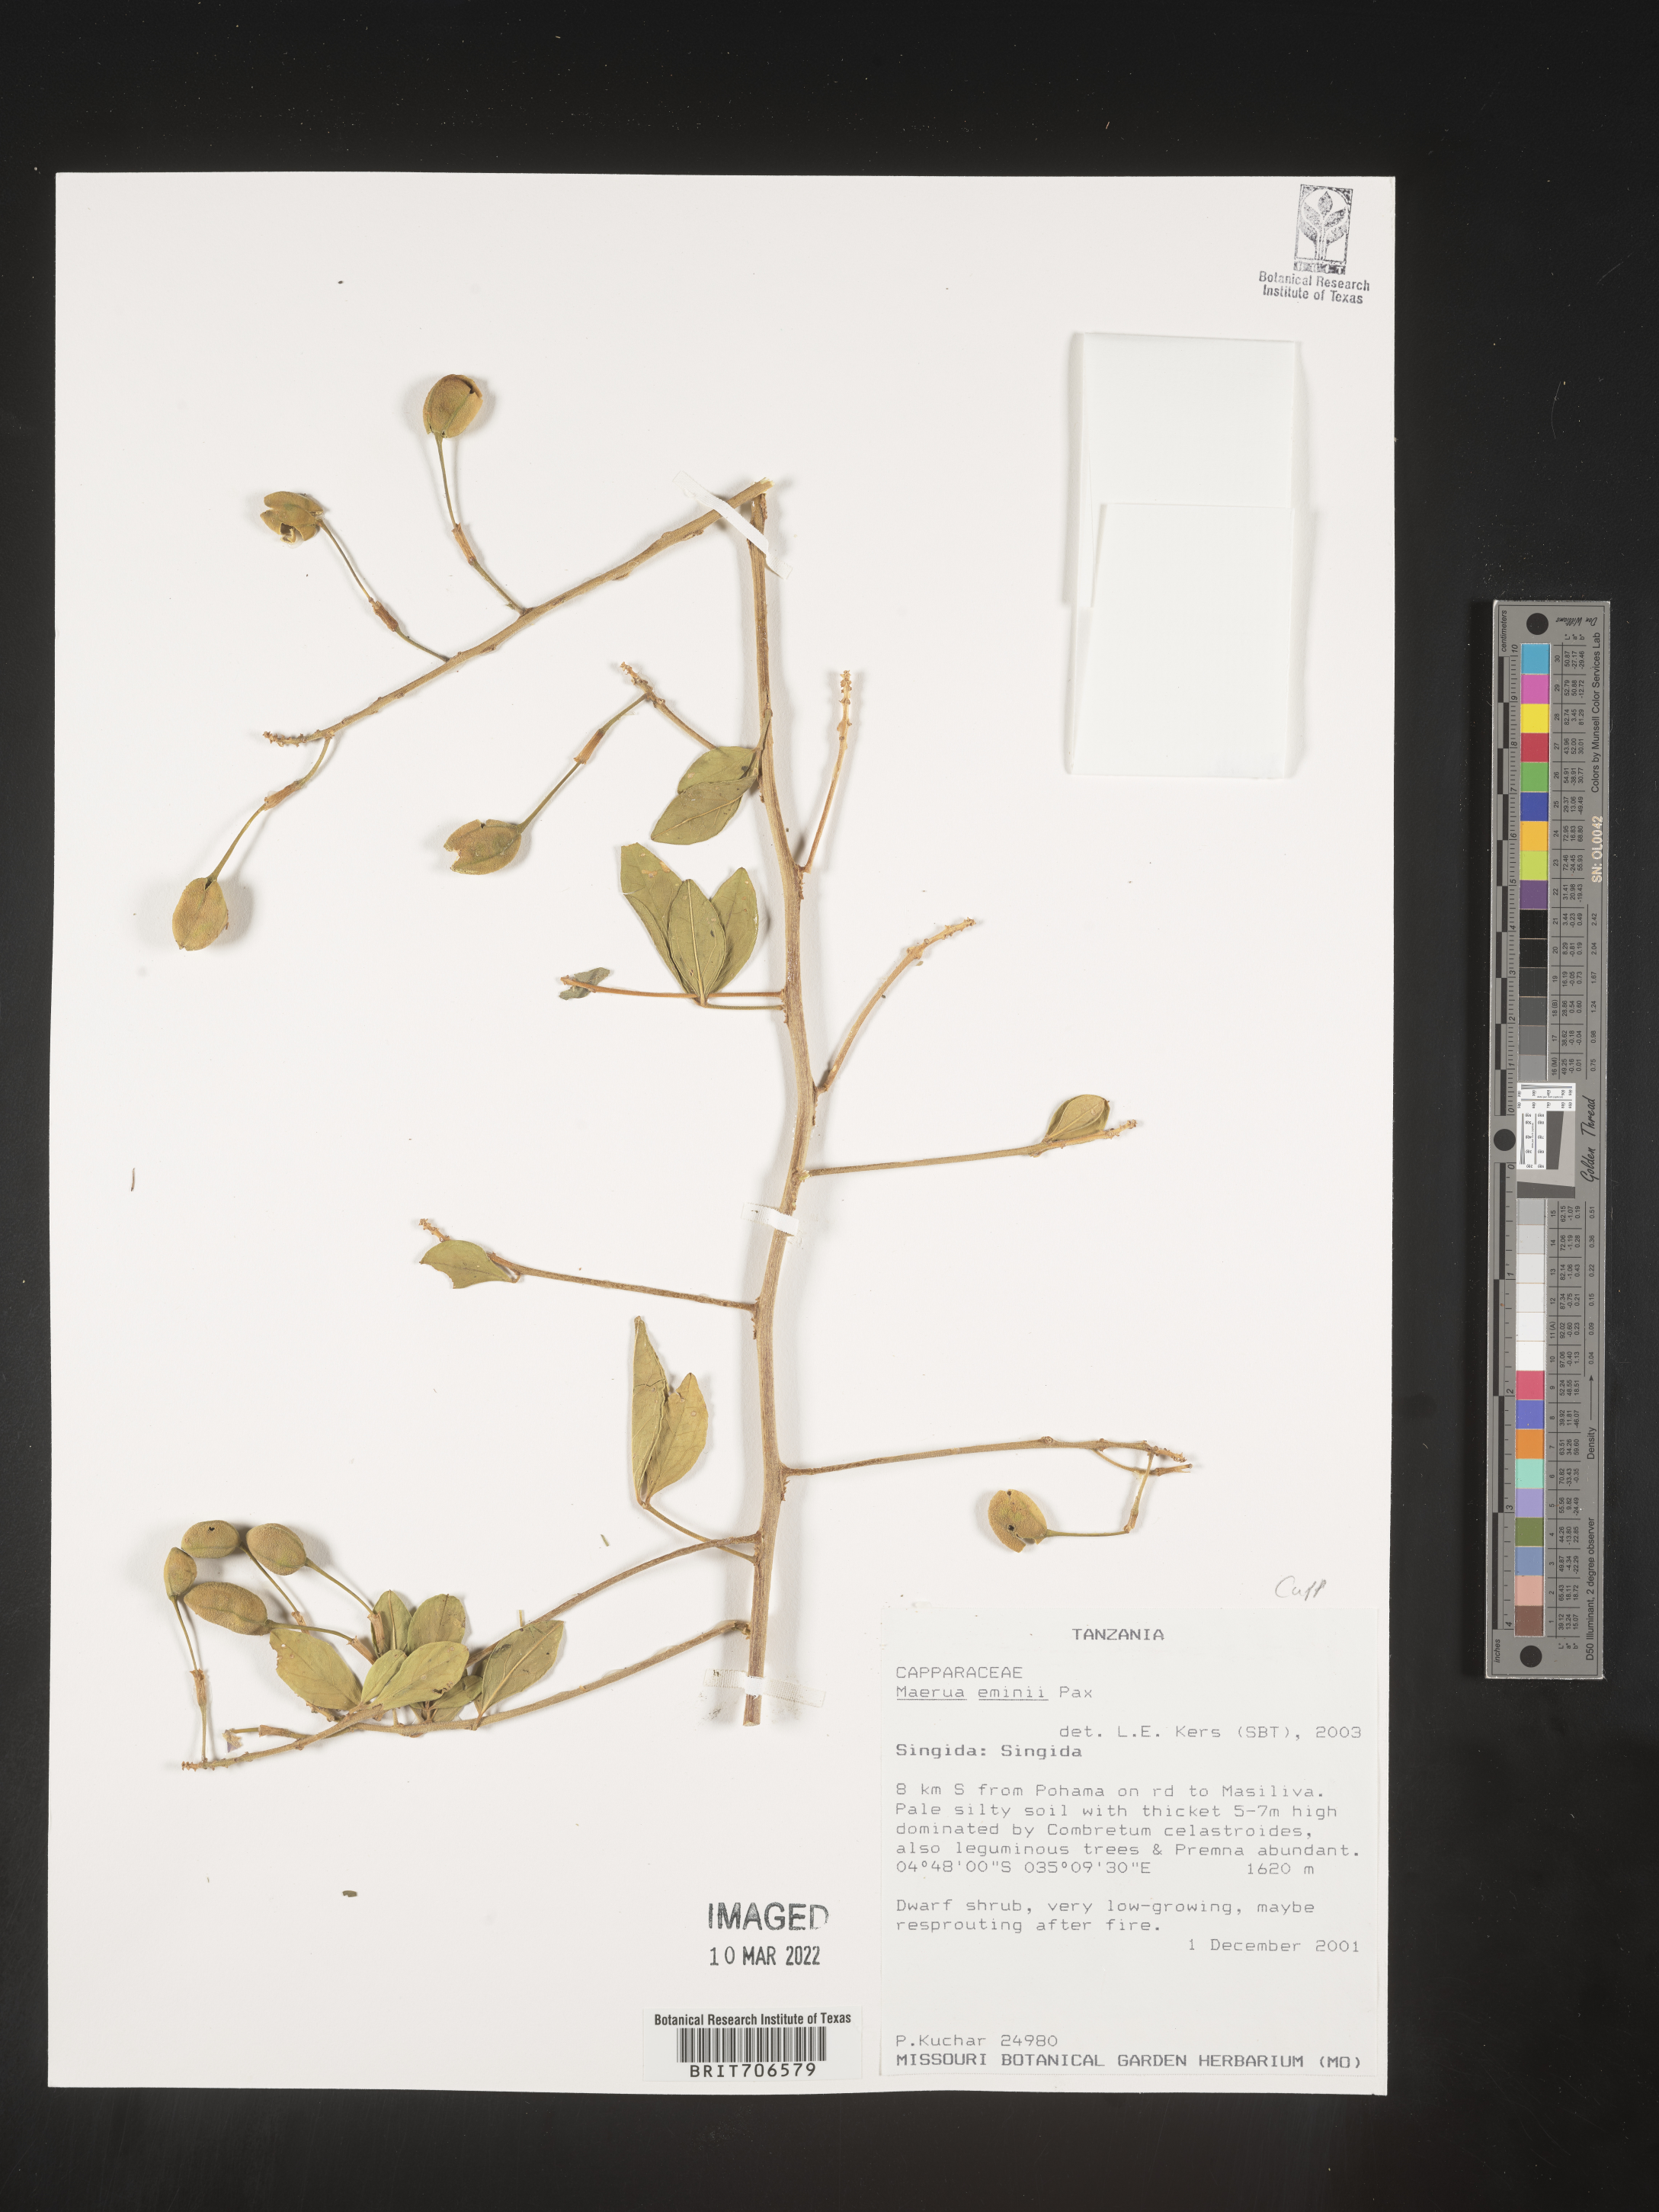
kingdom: Plantae
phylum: Tracheophyta
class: Magnoliopsida
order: Brassicales
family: Capparaceae
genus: Maerua
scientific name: Maerua
